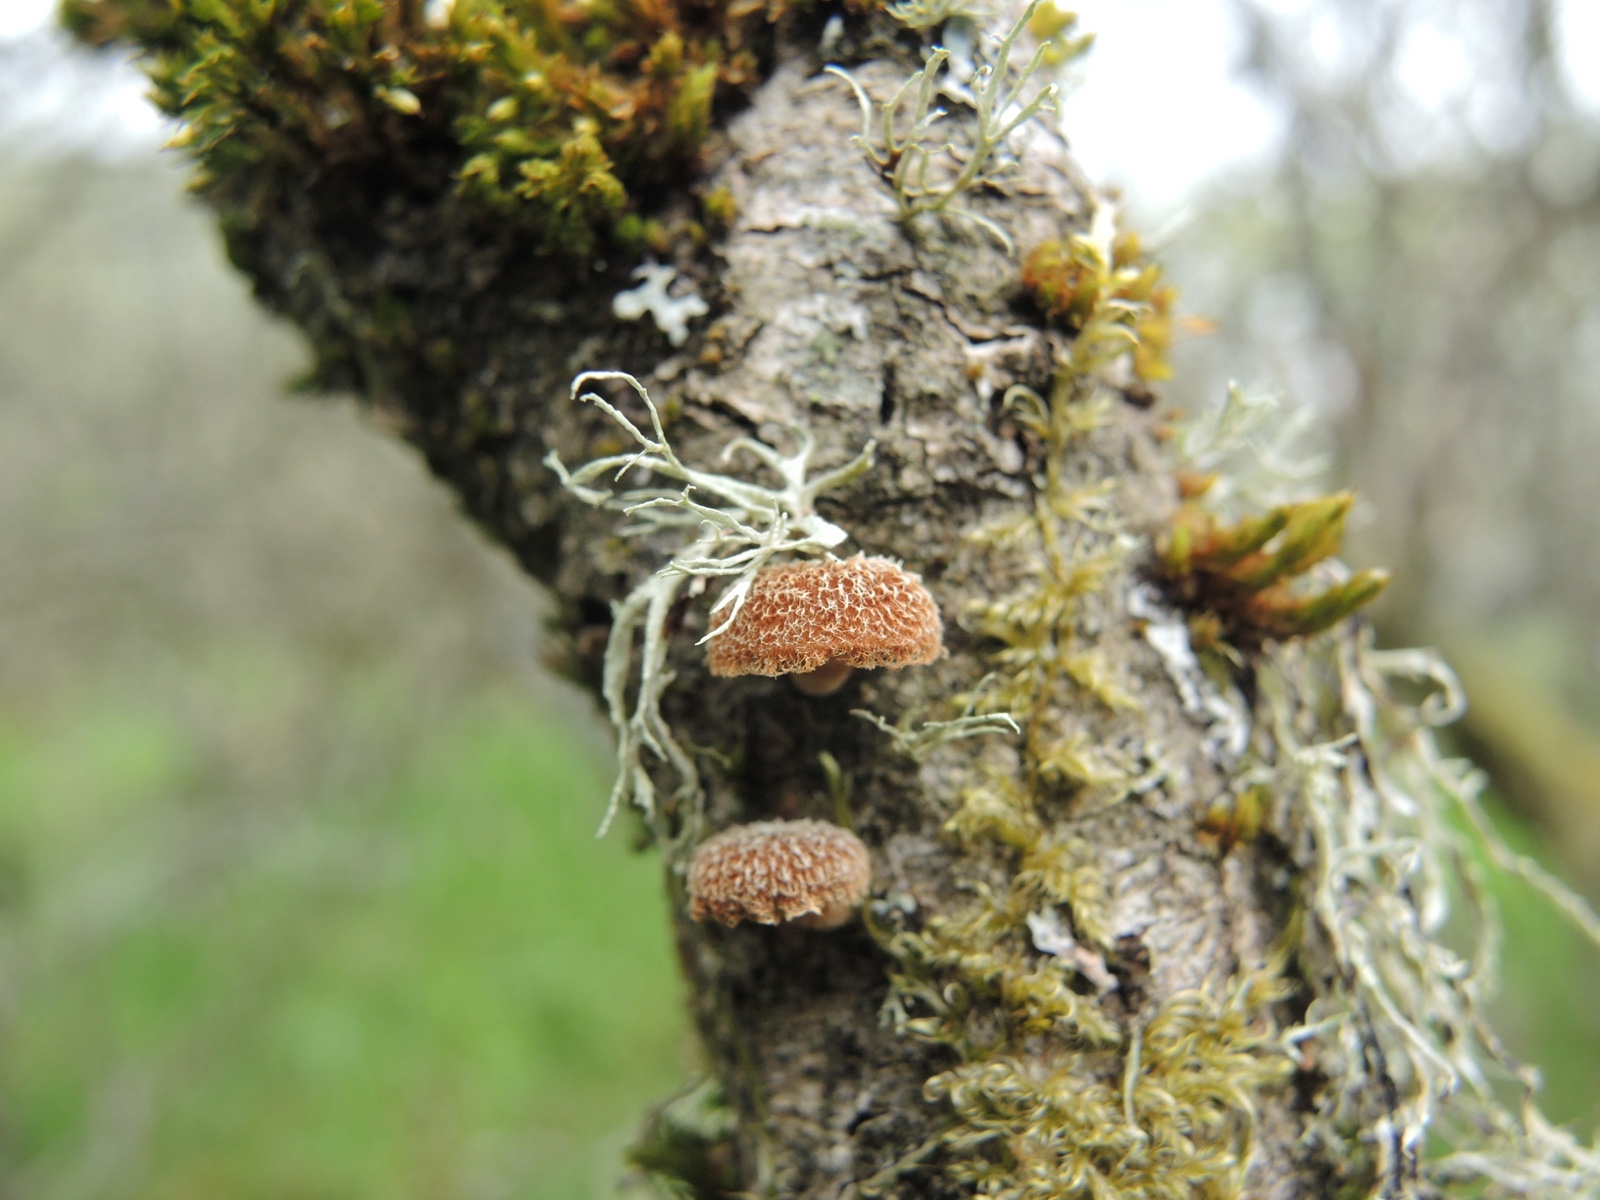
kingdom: Fungi
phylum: Basidiomycota
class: Agaricomycetes
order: Agaricales
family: Tubariaceae
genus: Phaeomarasmius
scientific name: Phaeomarasmius erinaceus
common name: spidsskælhat
